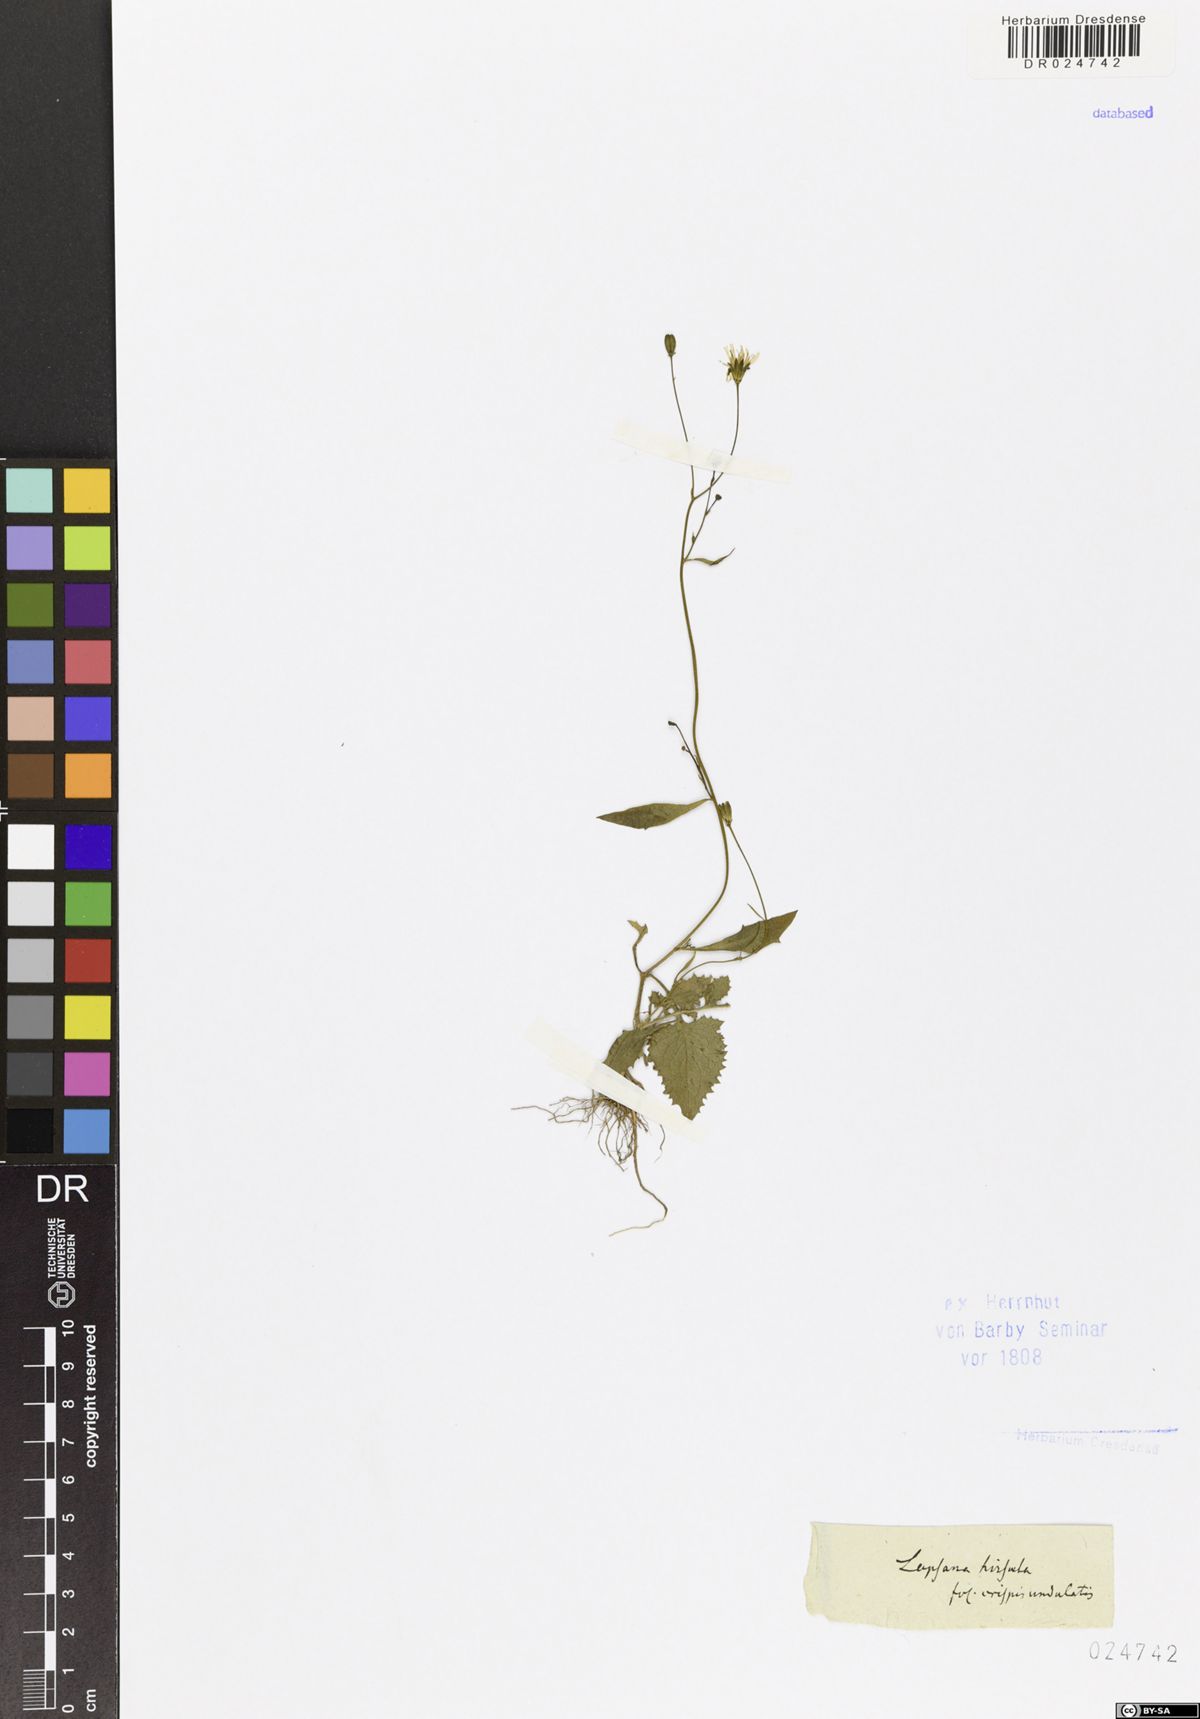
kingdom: Plantae
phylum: Tracheophyta
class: Magnoliopsida
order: Asterales
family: Asteraceae
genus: Lapsana
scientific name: Lapsana communis
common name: Nipplewort
